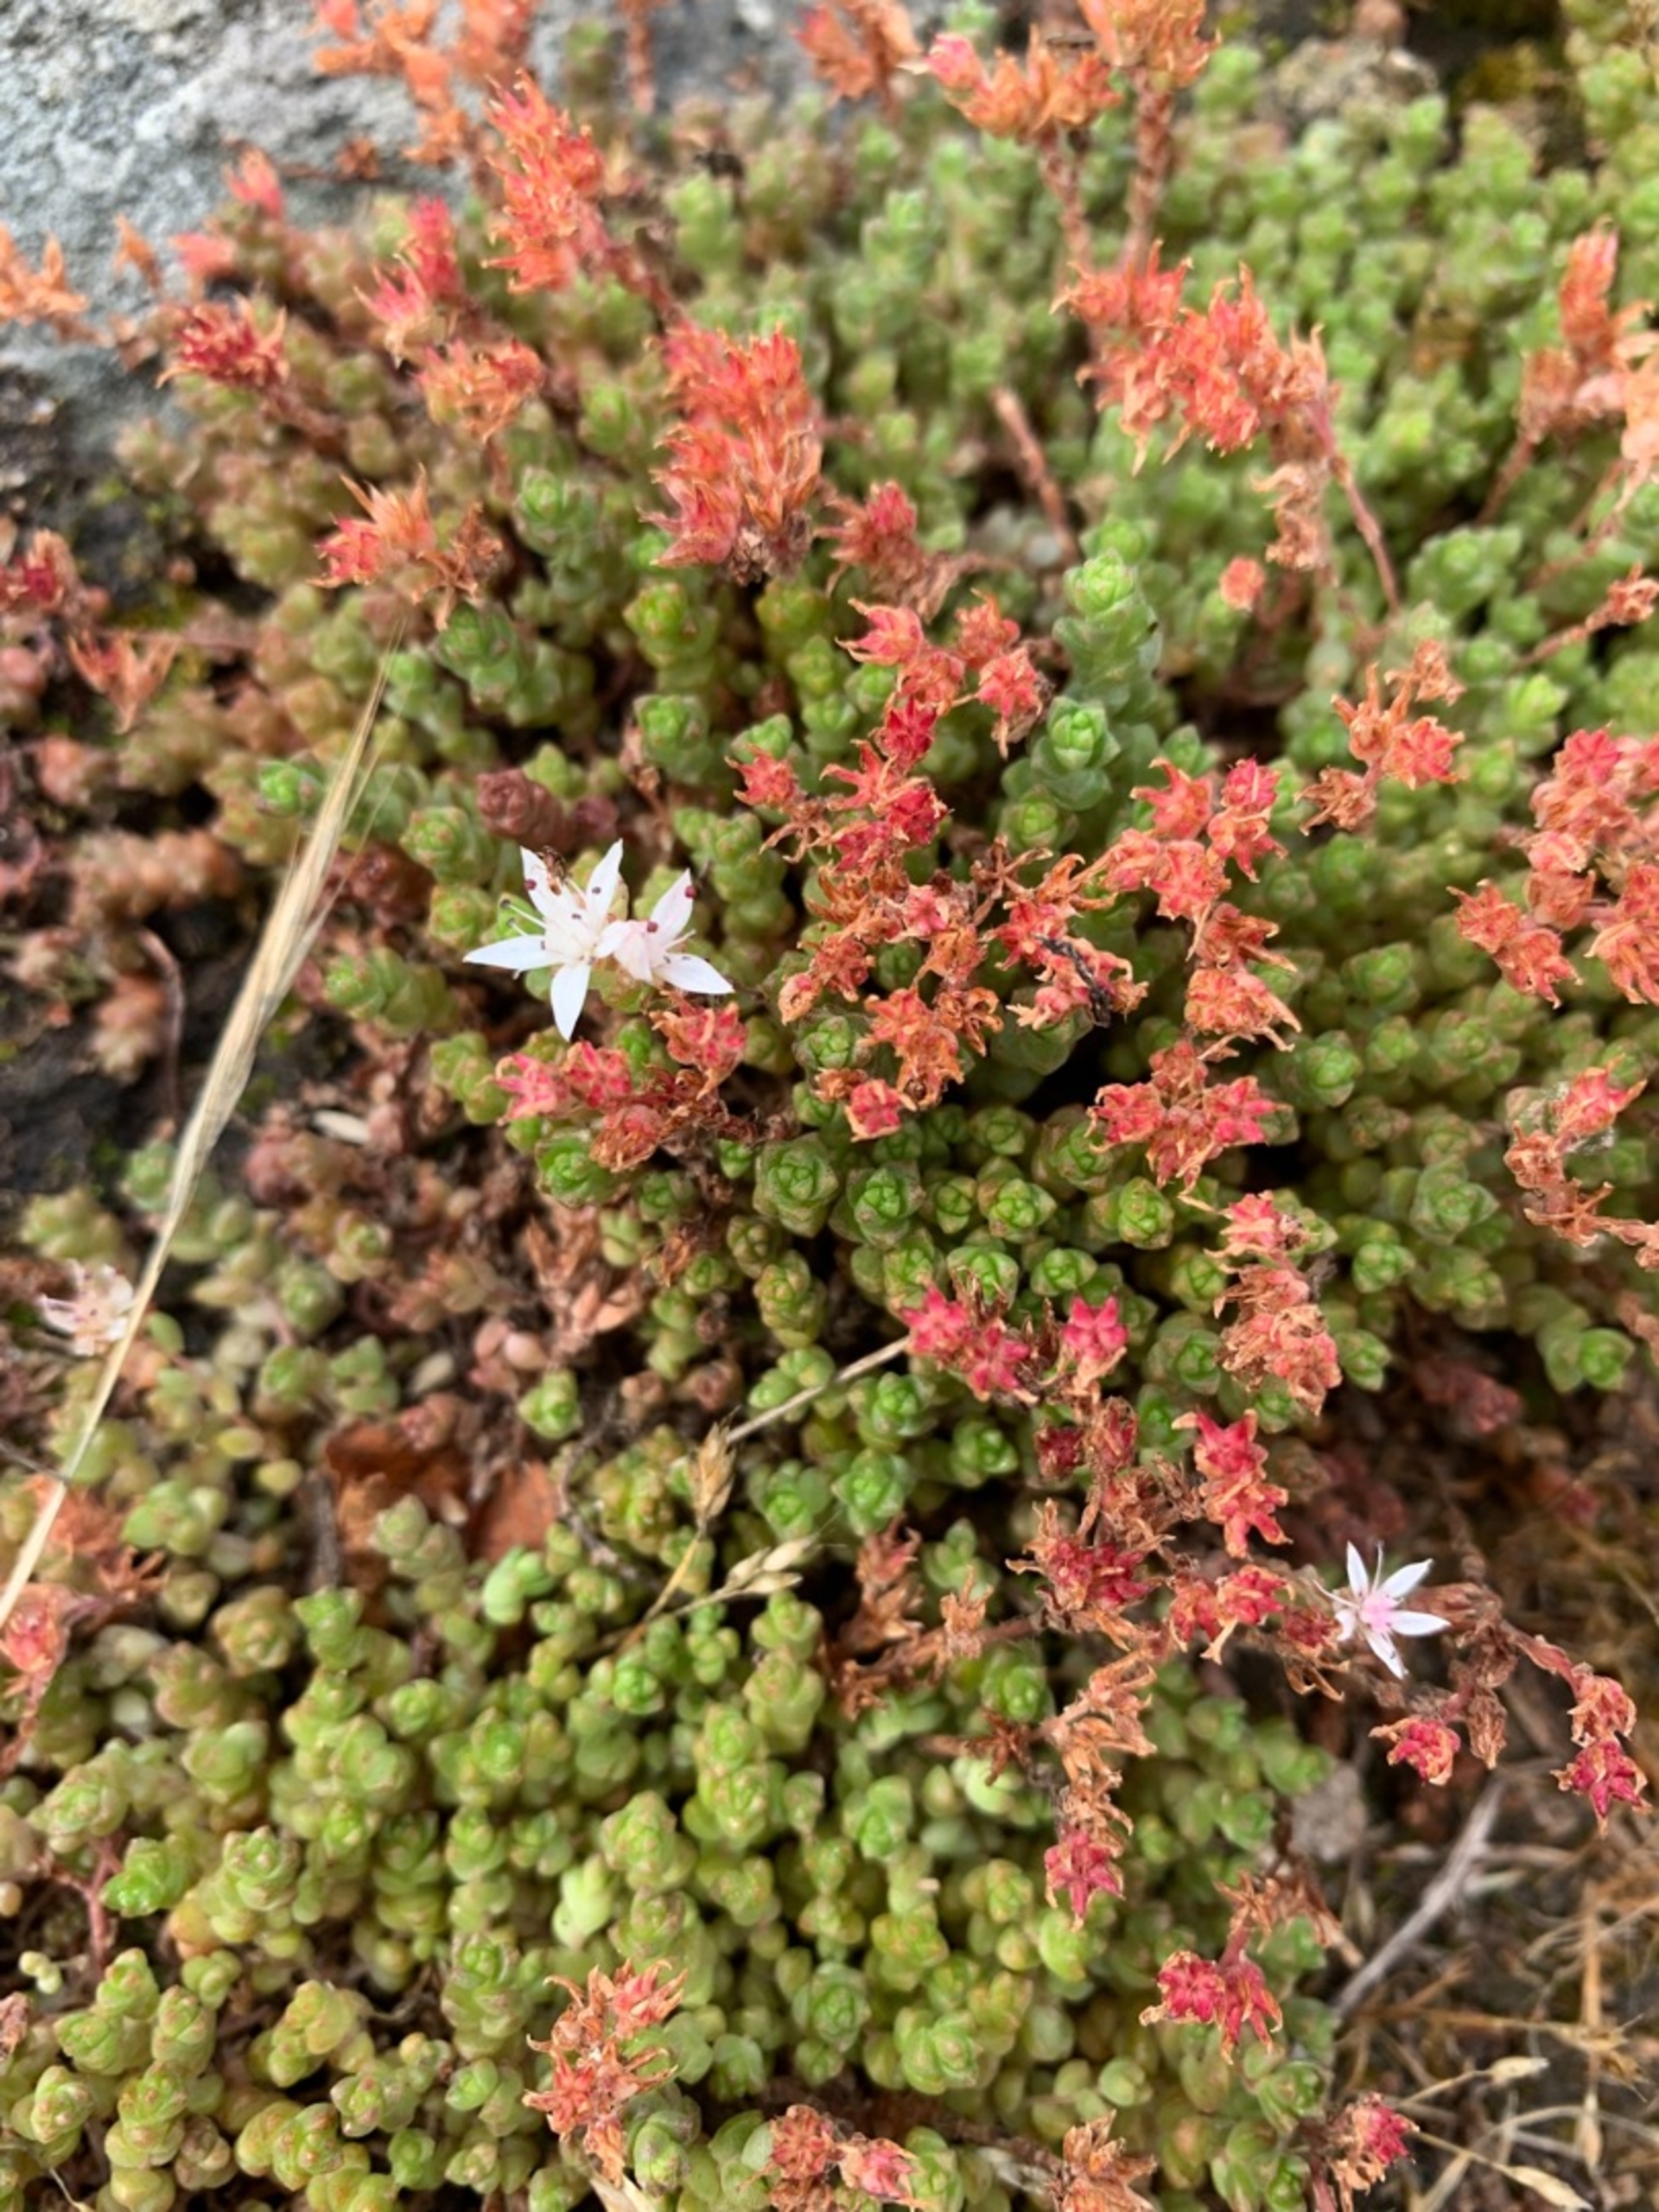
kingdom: Plantae
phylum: Tracheophyta
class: Magnoliopsida
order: Saxifragales
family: Crassulaceae
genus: Sedum
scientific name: Sedum anglicum
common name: Engelsk stenurt
